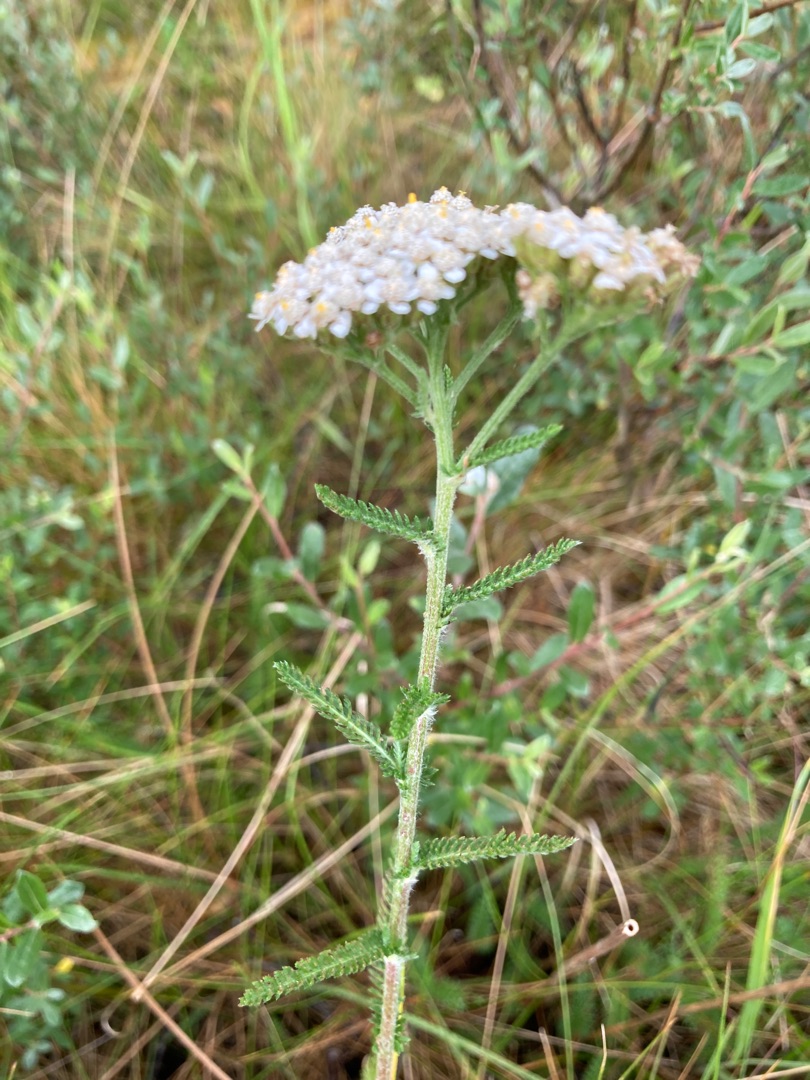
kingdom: Plantae
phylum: Tracheophyta
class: Magnoliopsida
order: Asterales
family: Asteraceae
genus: Achillea
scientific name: Achillea millefolium
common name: Almindelig røllike
